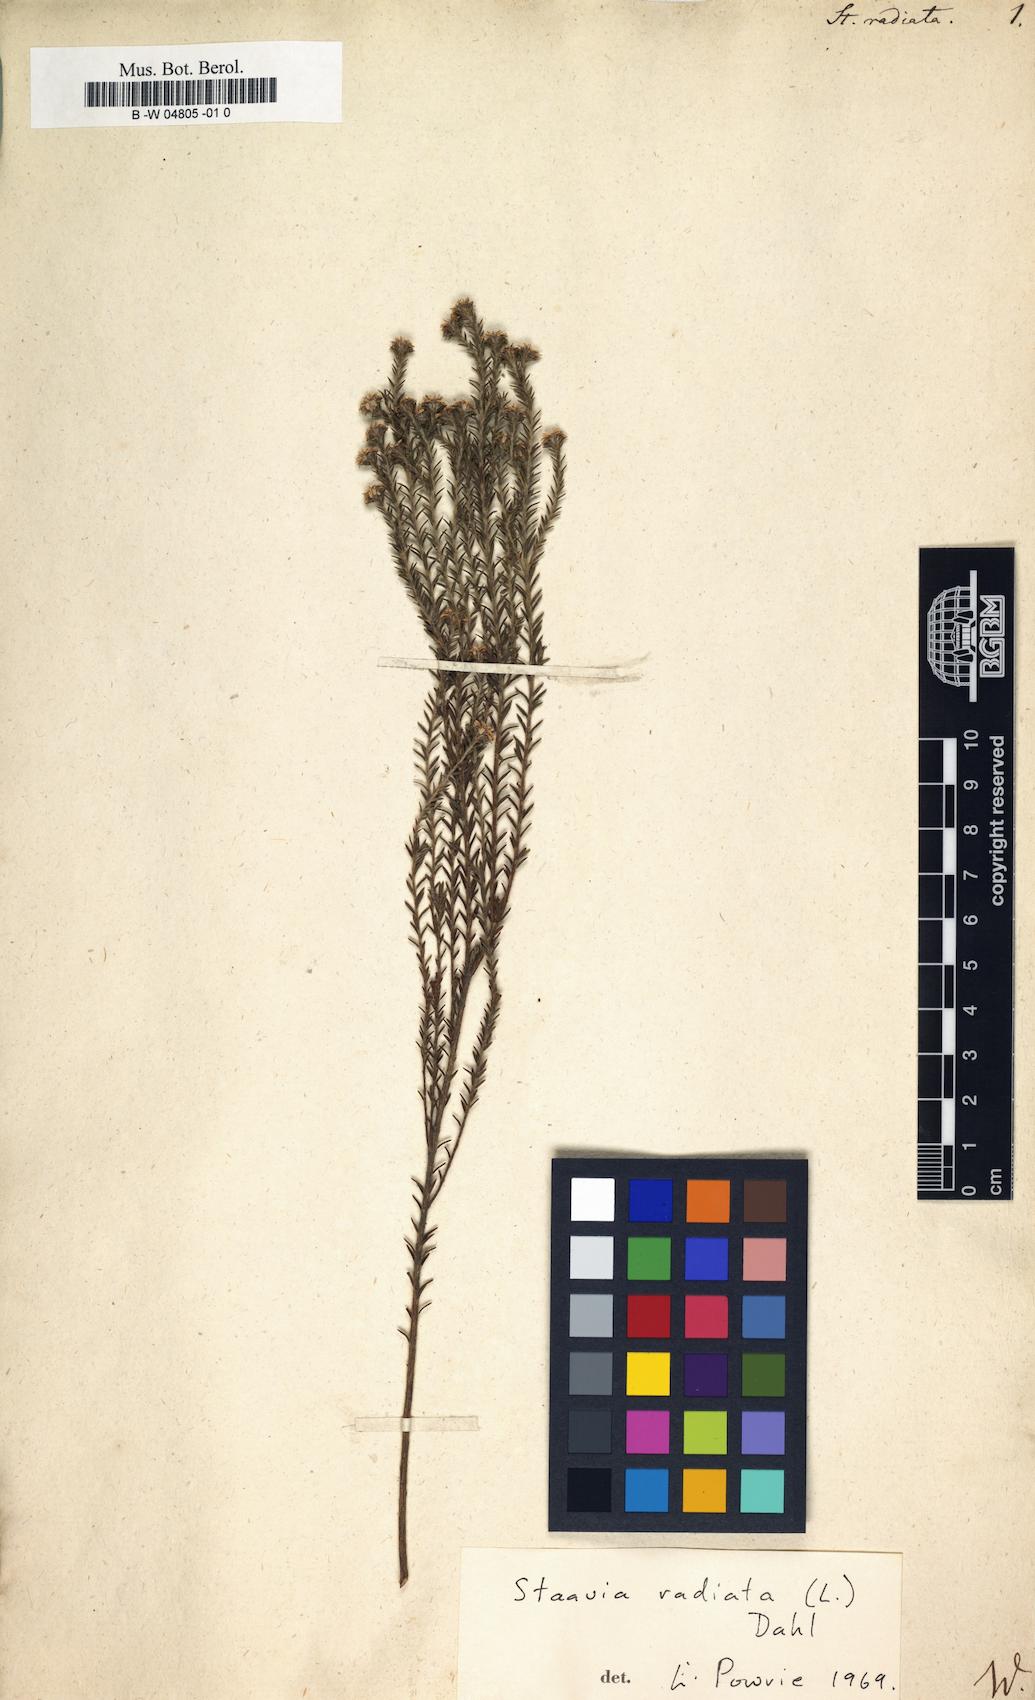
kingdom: Plantae
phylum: Tracheophyta
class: Magnoliopsida
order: Bruniales
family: Bruniaceae
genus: Staavia
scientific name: Staavia radiata
